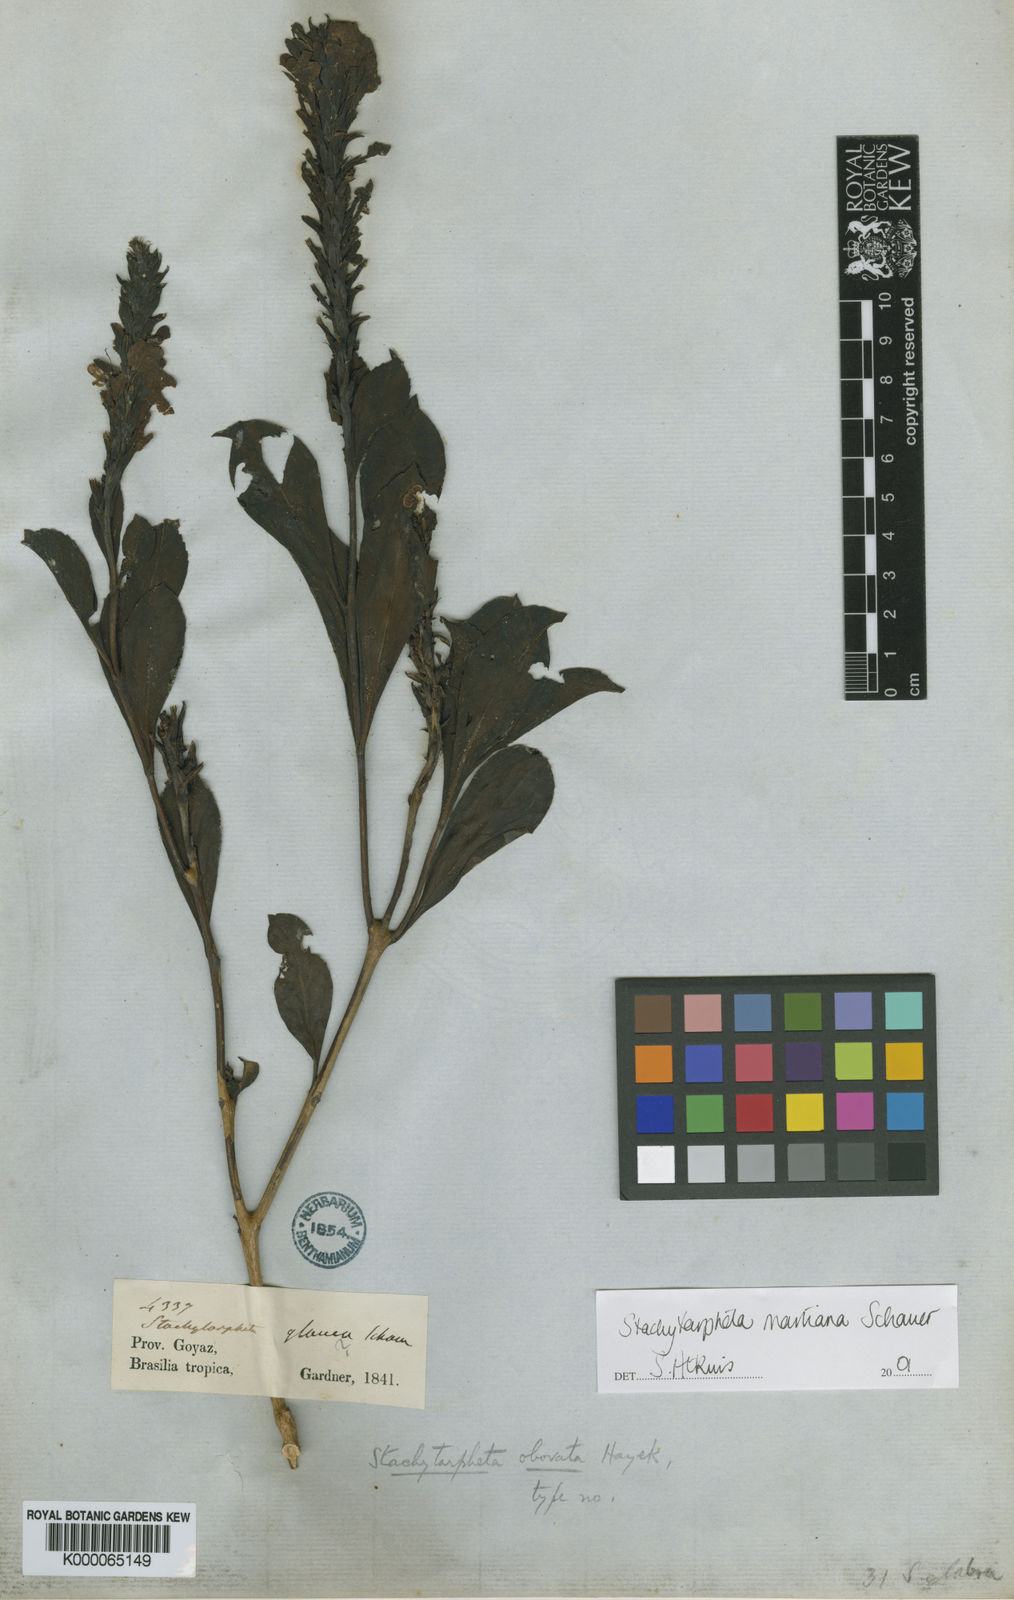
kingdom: Plantae
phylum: Tracheophyta
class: Magnoliopsida
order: Lamiales
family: Verbenaceae
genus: Stachytarpheta
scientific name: Stachytarpheta martiana
